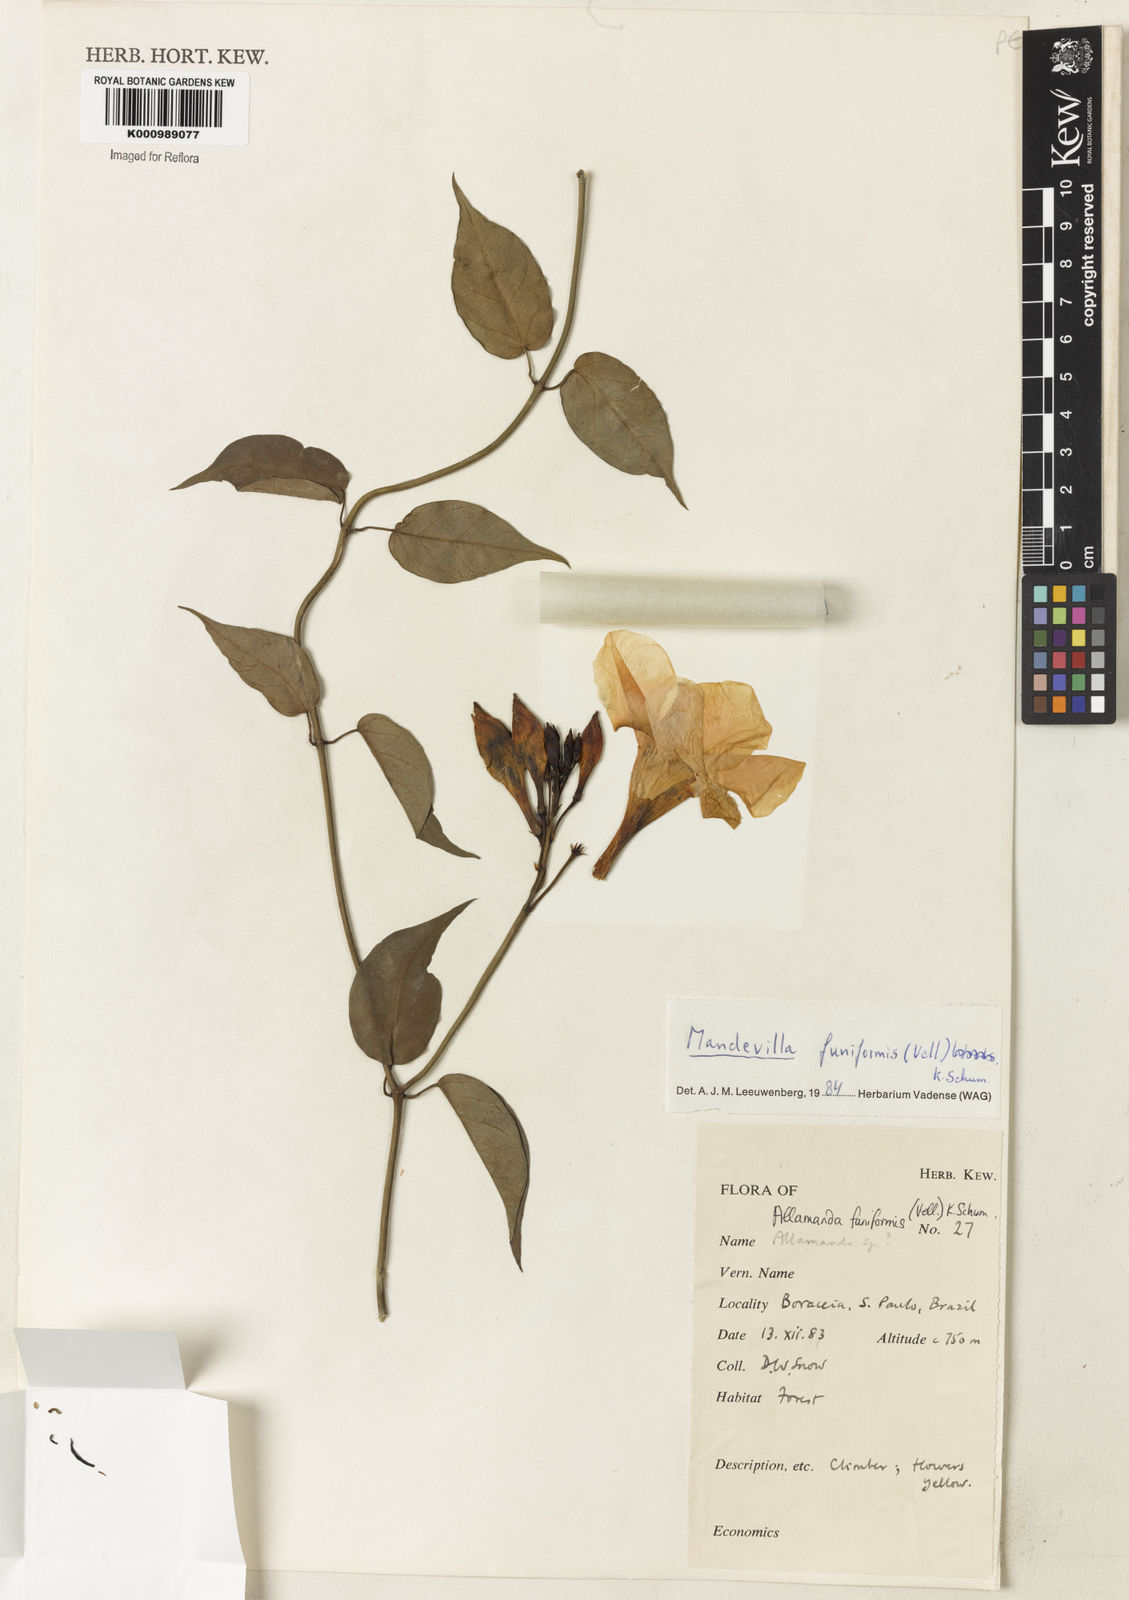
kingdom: Plantae
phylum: Tracheophyta
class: Magnoliopsida
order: Gentianales
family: Apocynaceae
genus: Mandevilla
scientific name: Mandevilla funiformis
